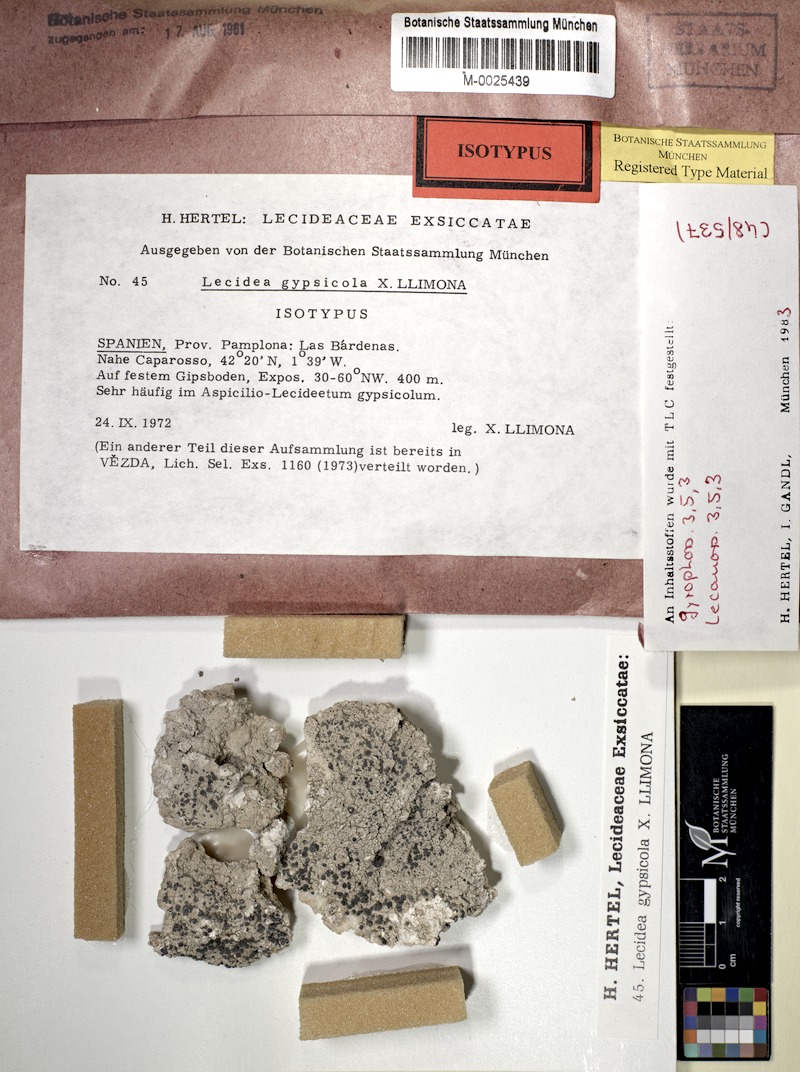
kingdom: Fungi
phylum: Ascomycota
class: Lecanoromycetes
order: Lecideales
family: Lecideaceae
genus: Lecidea
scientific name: Lecidea gypsicola
